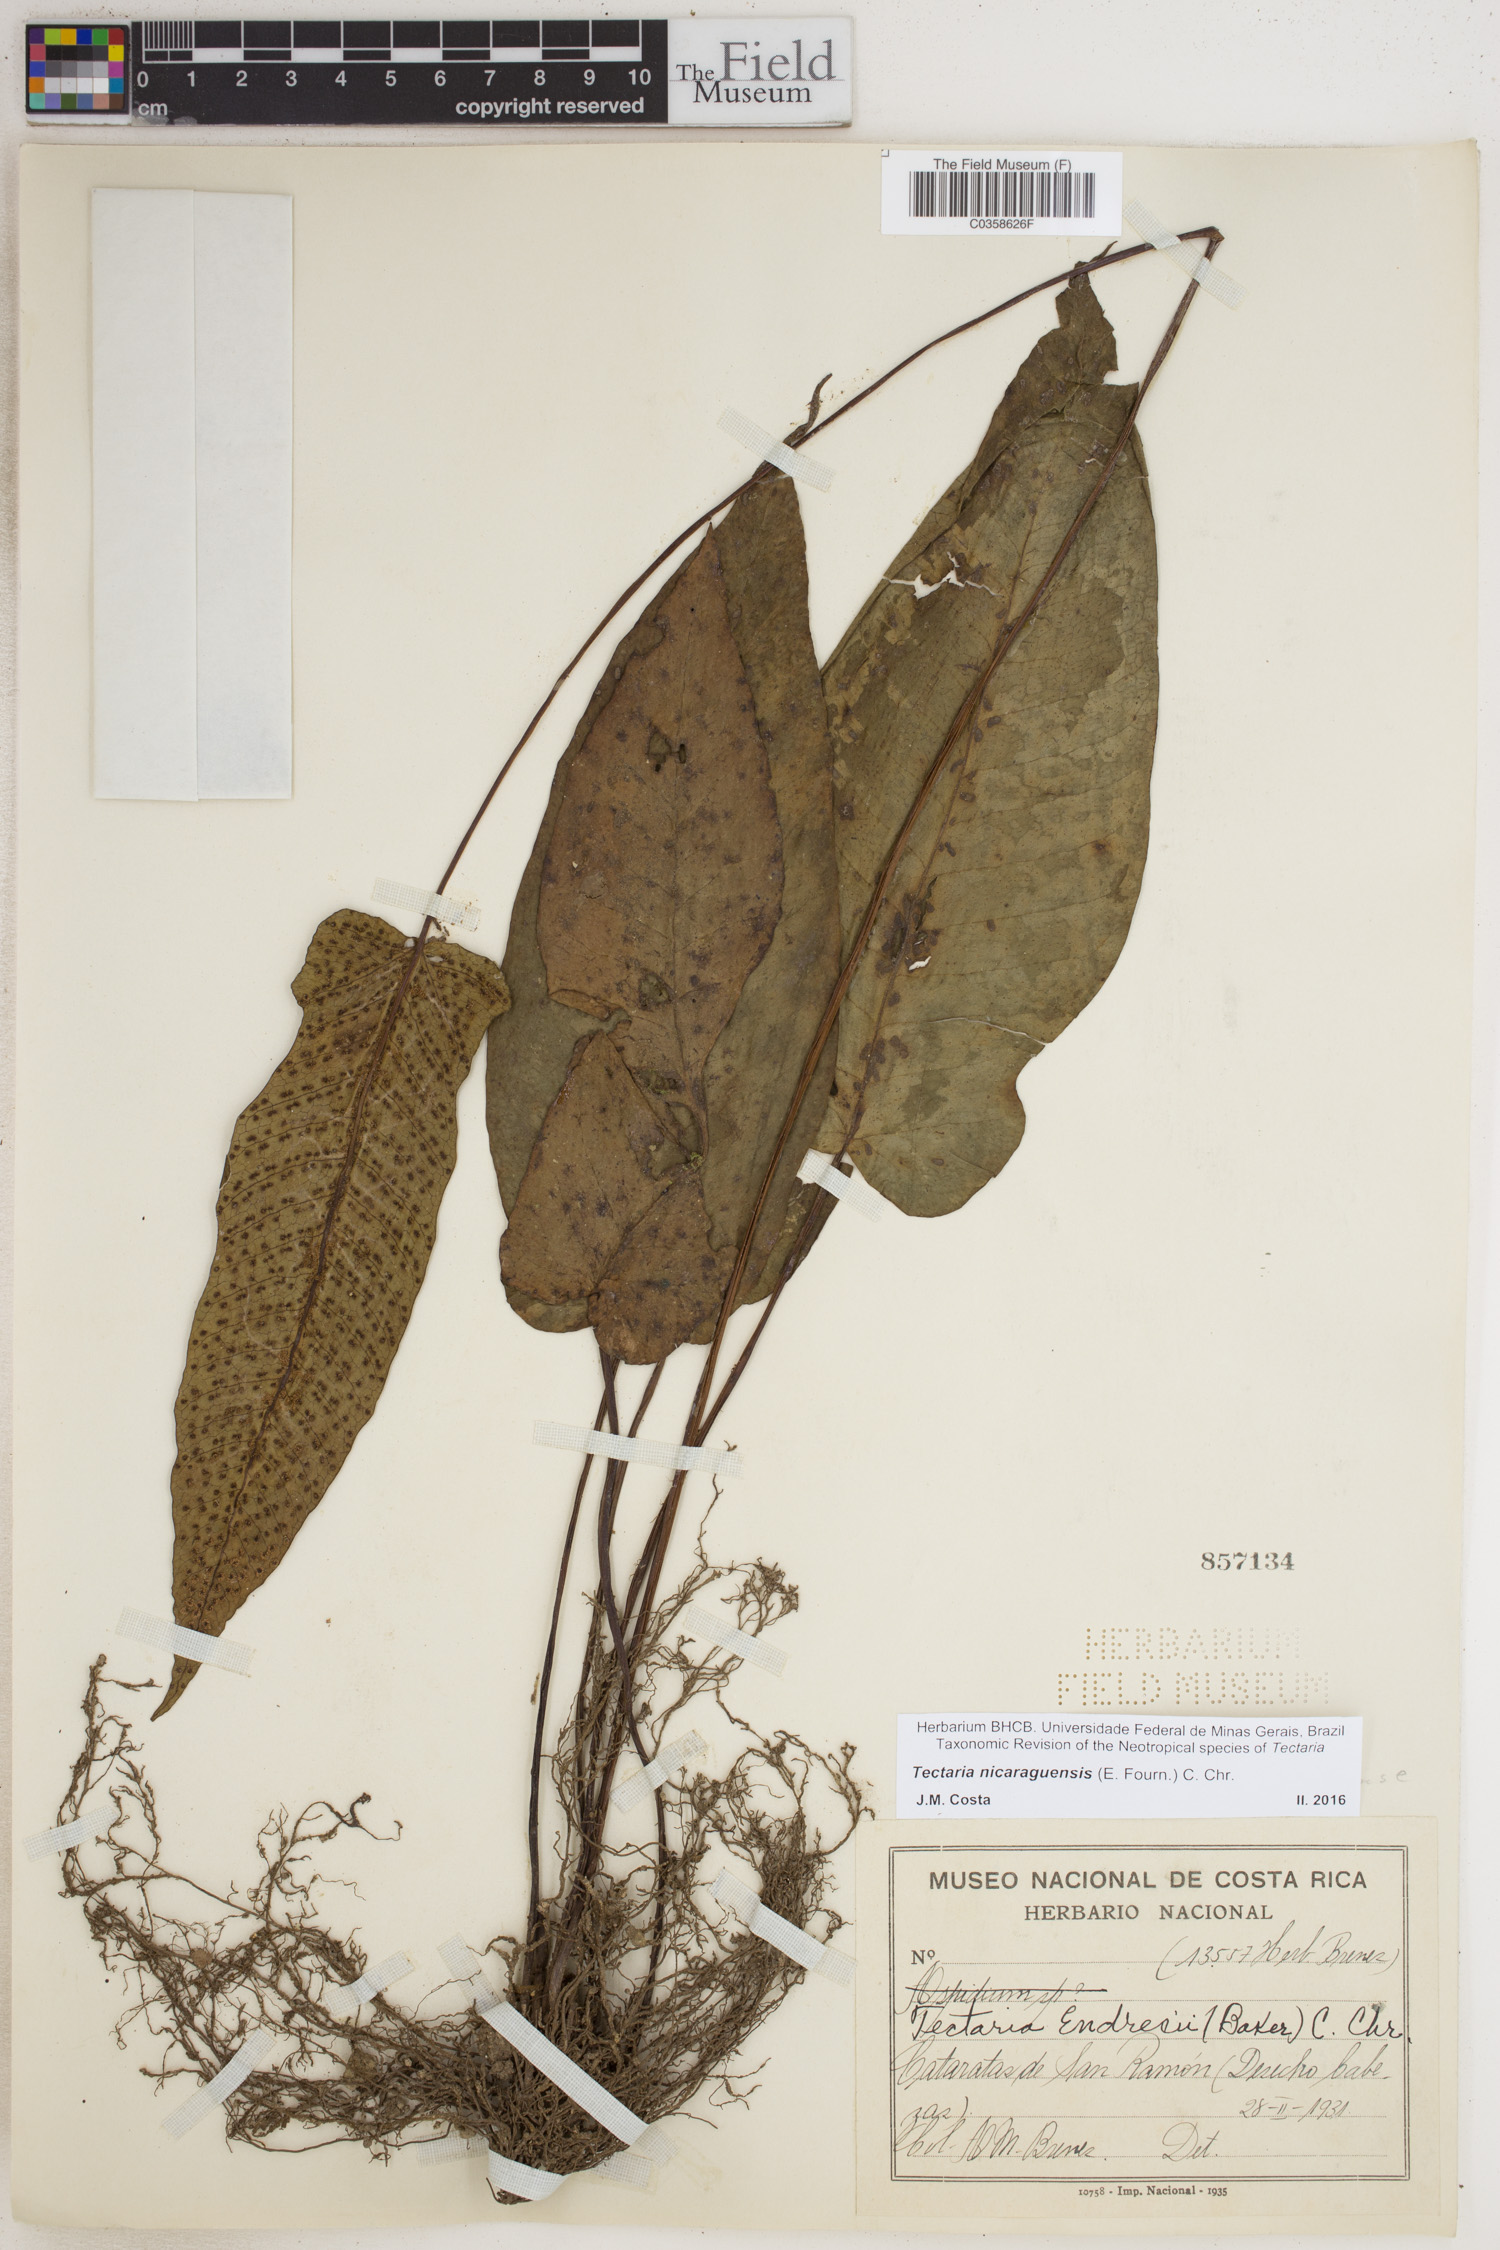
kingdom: Plantae
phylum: Tracheophyta
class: Polypodiopsida
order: Polypodiales
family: Tectariaceae
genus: Tectaria
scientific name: Tectaria nicaraguensis
